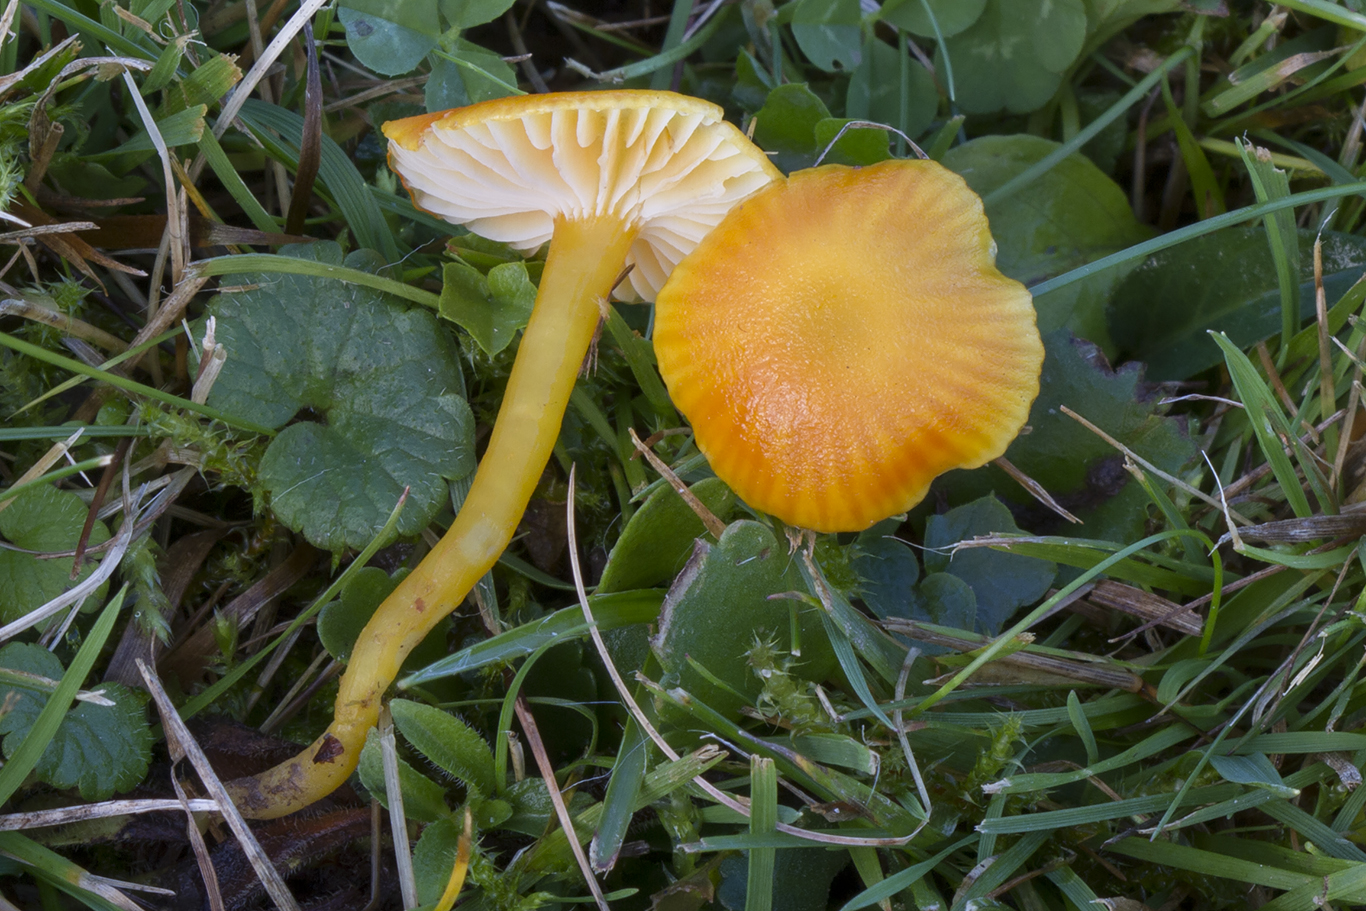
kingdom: Fungi
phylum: Basidiomycota
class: Agaricomycetes
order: Agaricales
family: Hygrophoraceae
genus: Hygrocybe
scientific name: Hygrocybe ceracea
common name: voksgul vokshat
